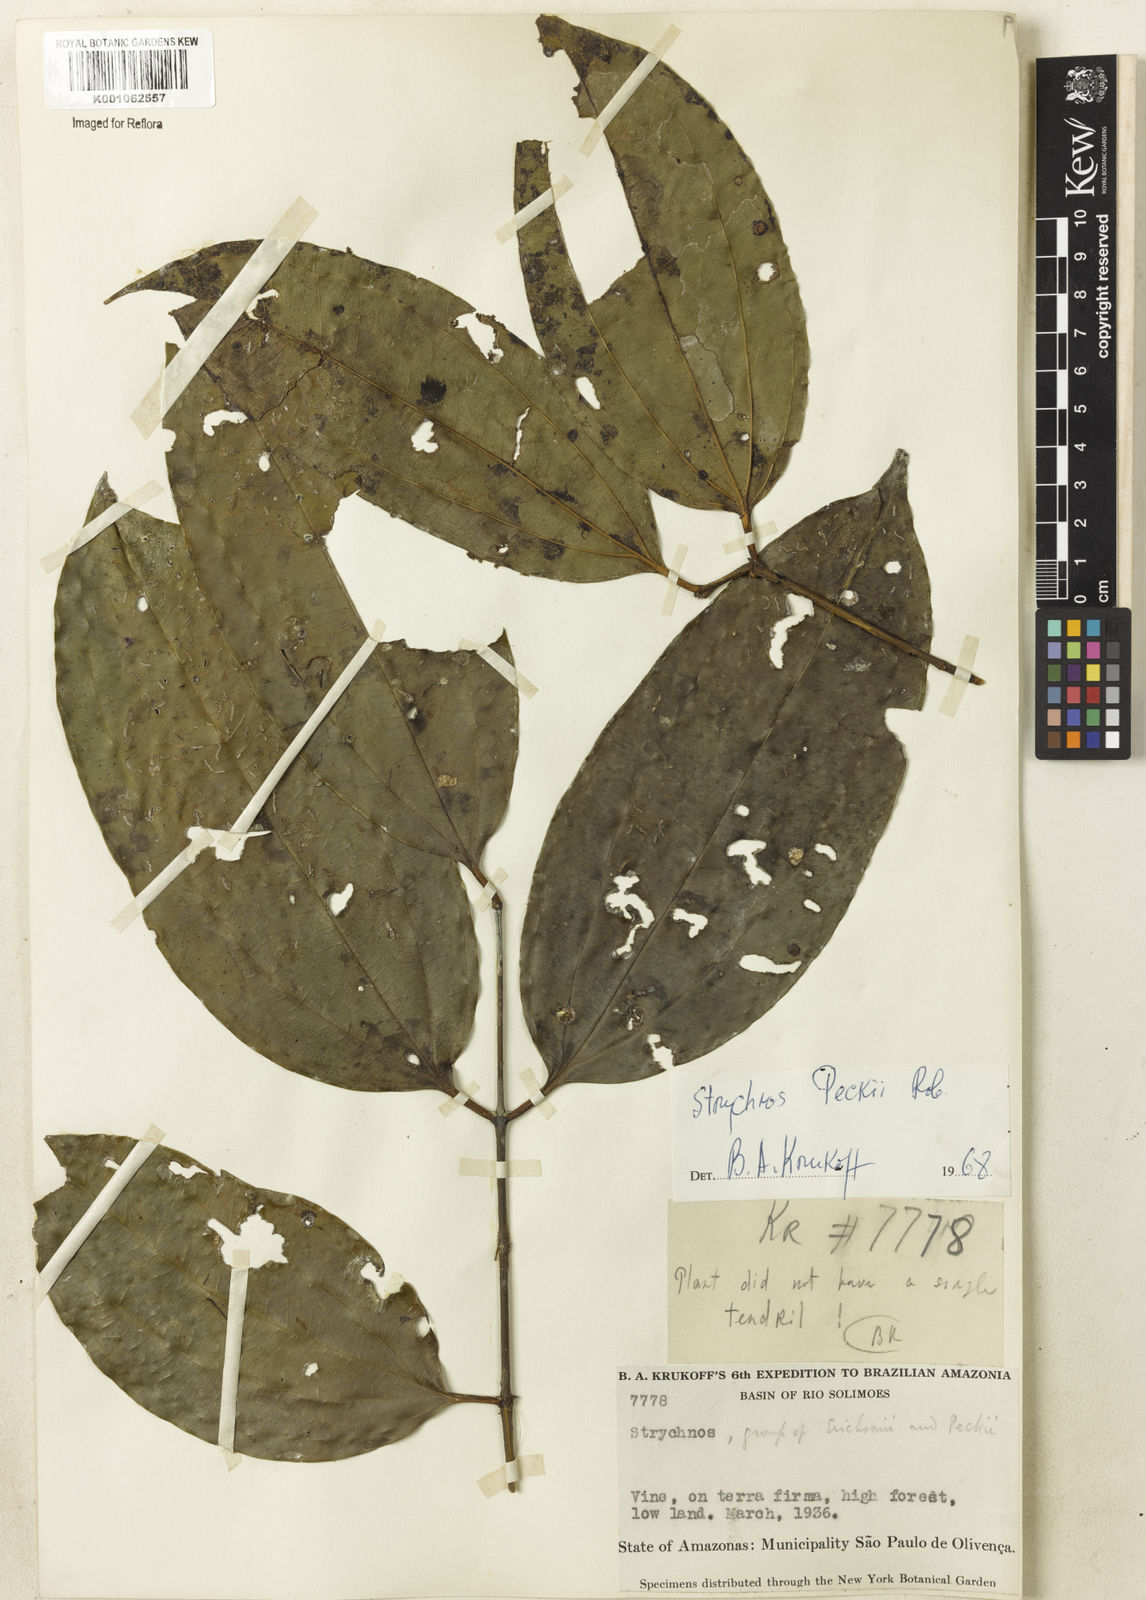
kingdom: Plantae
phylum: Tracheophyta
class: Magnoliopsida
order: Gentianales
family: Loganiaceae
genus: Strychnos
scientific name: Strychnos peckii
